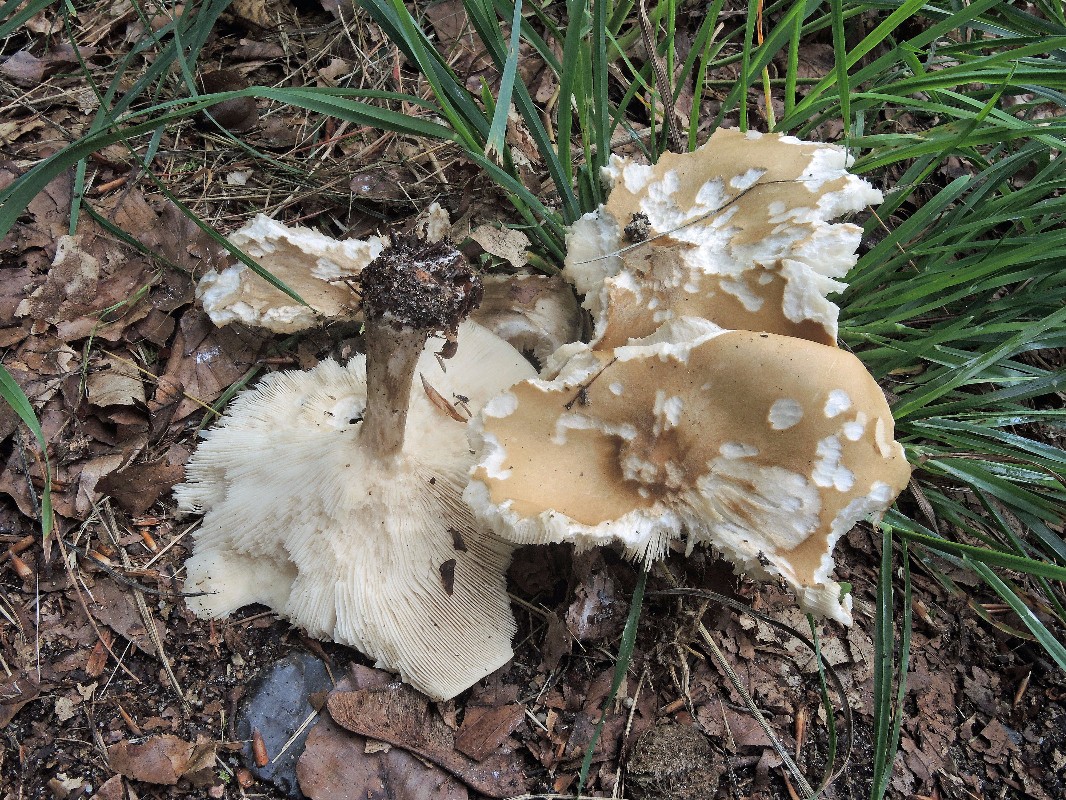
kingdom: Fungi
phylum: Basidiomycota
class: Agaricomycetes
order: Agaricales
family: Tricholomataceae
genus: Melanoleuca
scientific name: Melanoleuca grammopodia
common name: stribestokket munkehat
